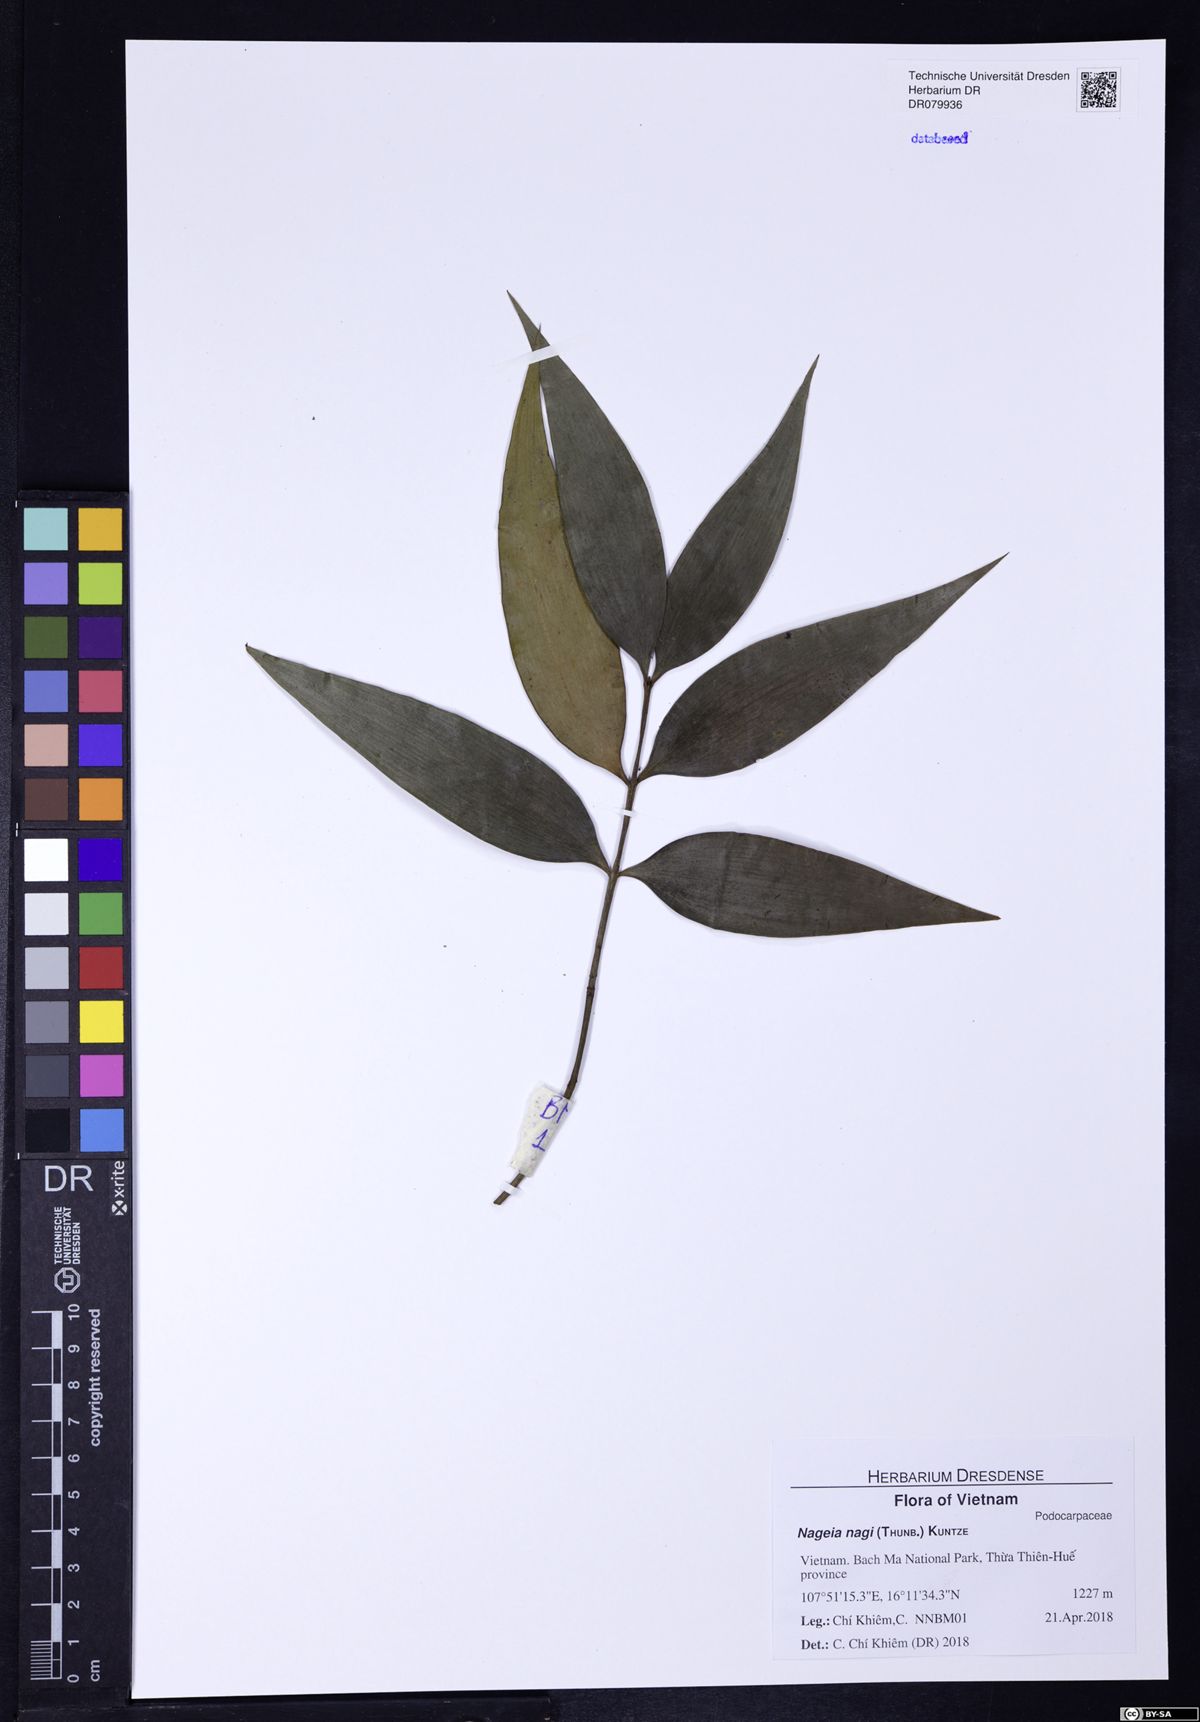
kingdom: Plantae
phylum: Tracheophyta
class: Pinopsida
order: Pinales
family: Podocarpaceae
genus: Nageia
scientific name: Nageia nagi
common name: Kaphal
